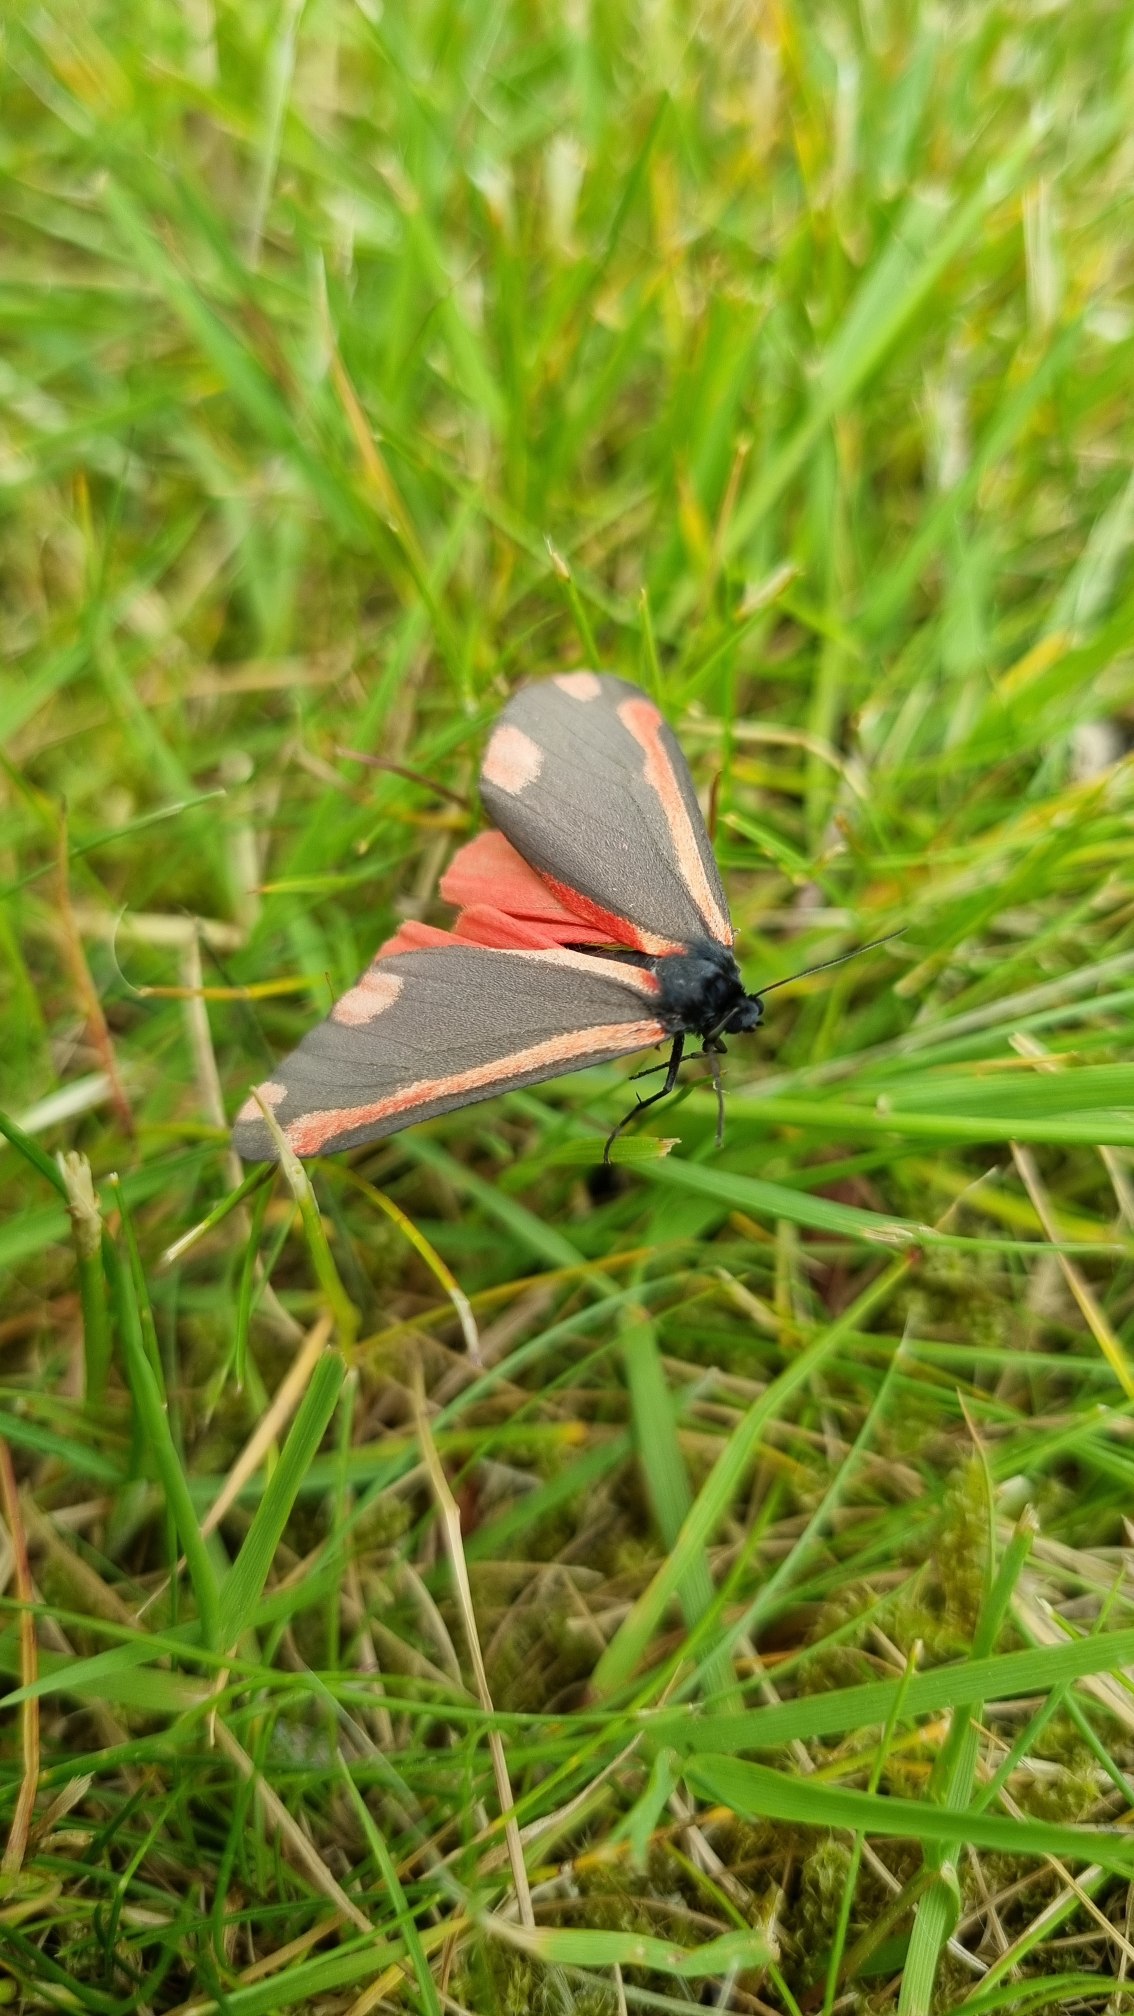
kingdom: Animalia
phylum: Arthropoda
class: Insecta
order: Lepidoptera
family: Erebidae
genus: Tyria
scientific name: Tyria jacobaeae
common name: Blodplet
